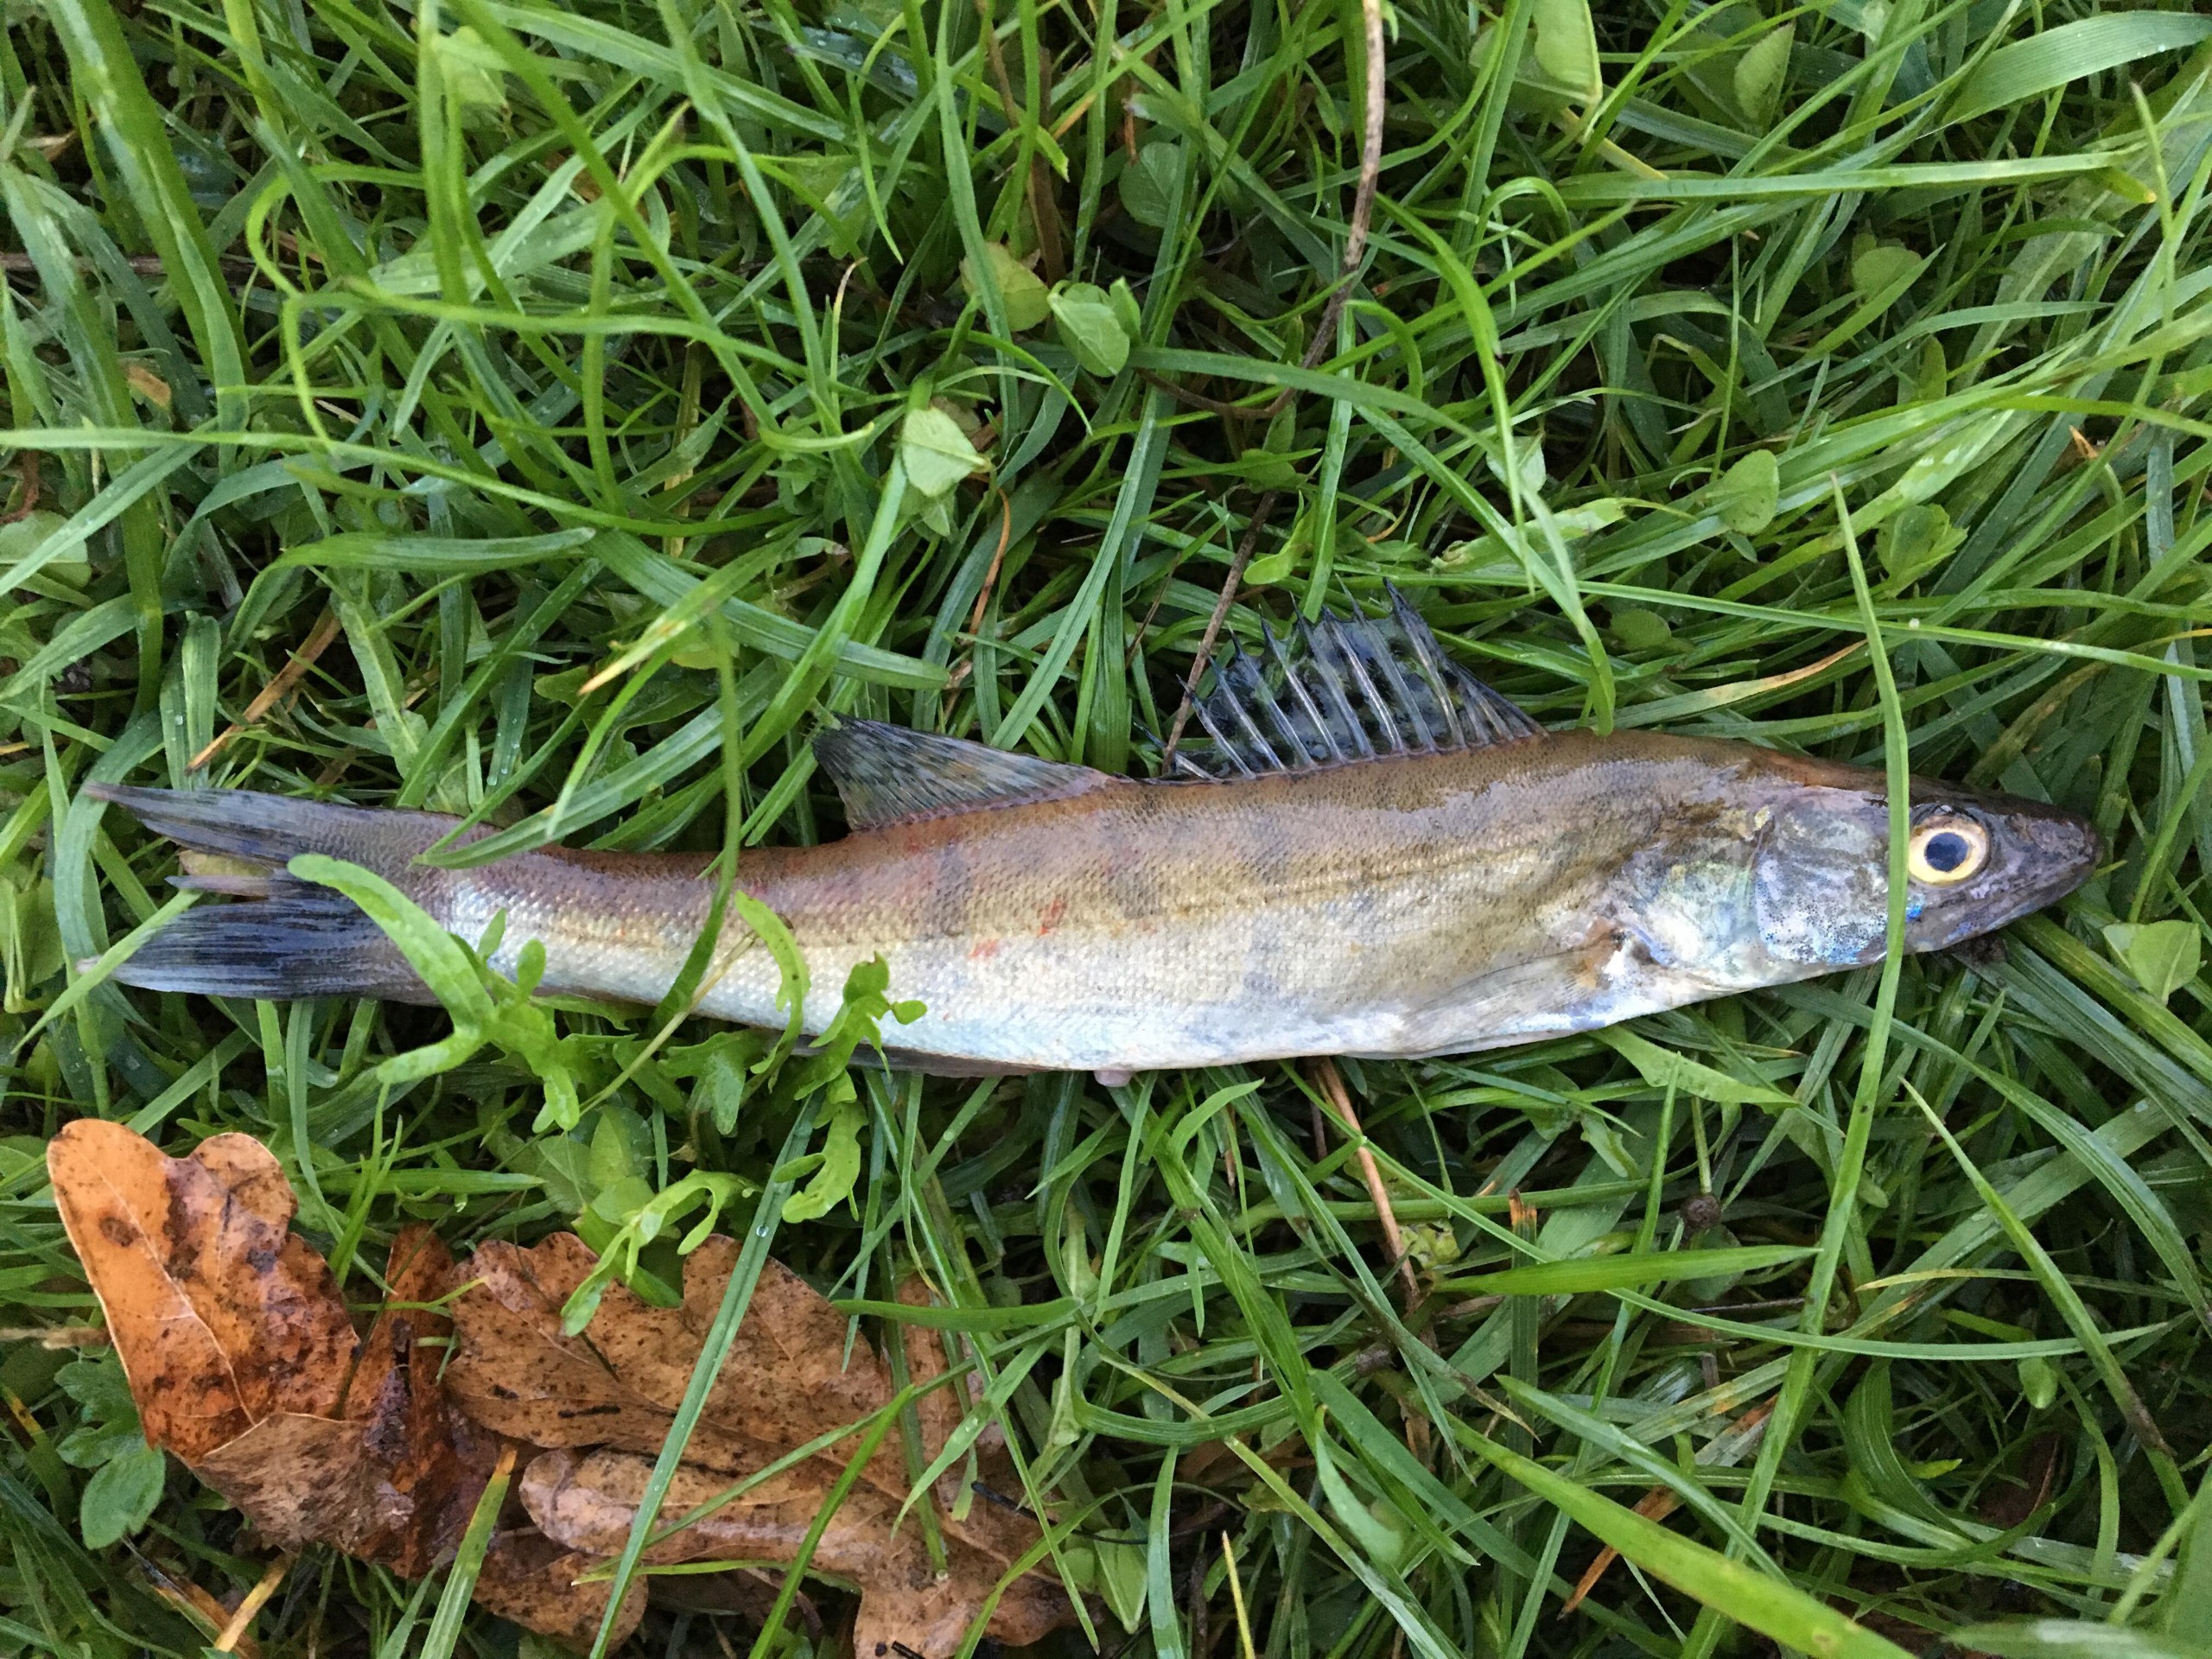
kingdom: Animalia
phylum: Chordata
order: Perciformes
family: Percidae
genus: Sander
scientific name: Sander lucioperca
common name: Sandart
